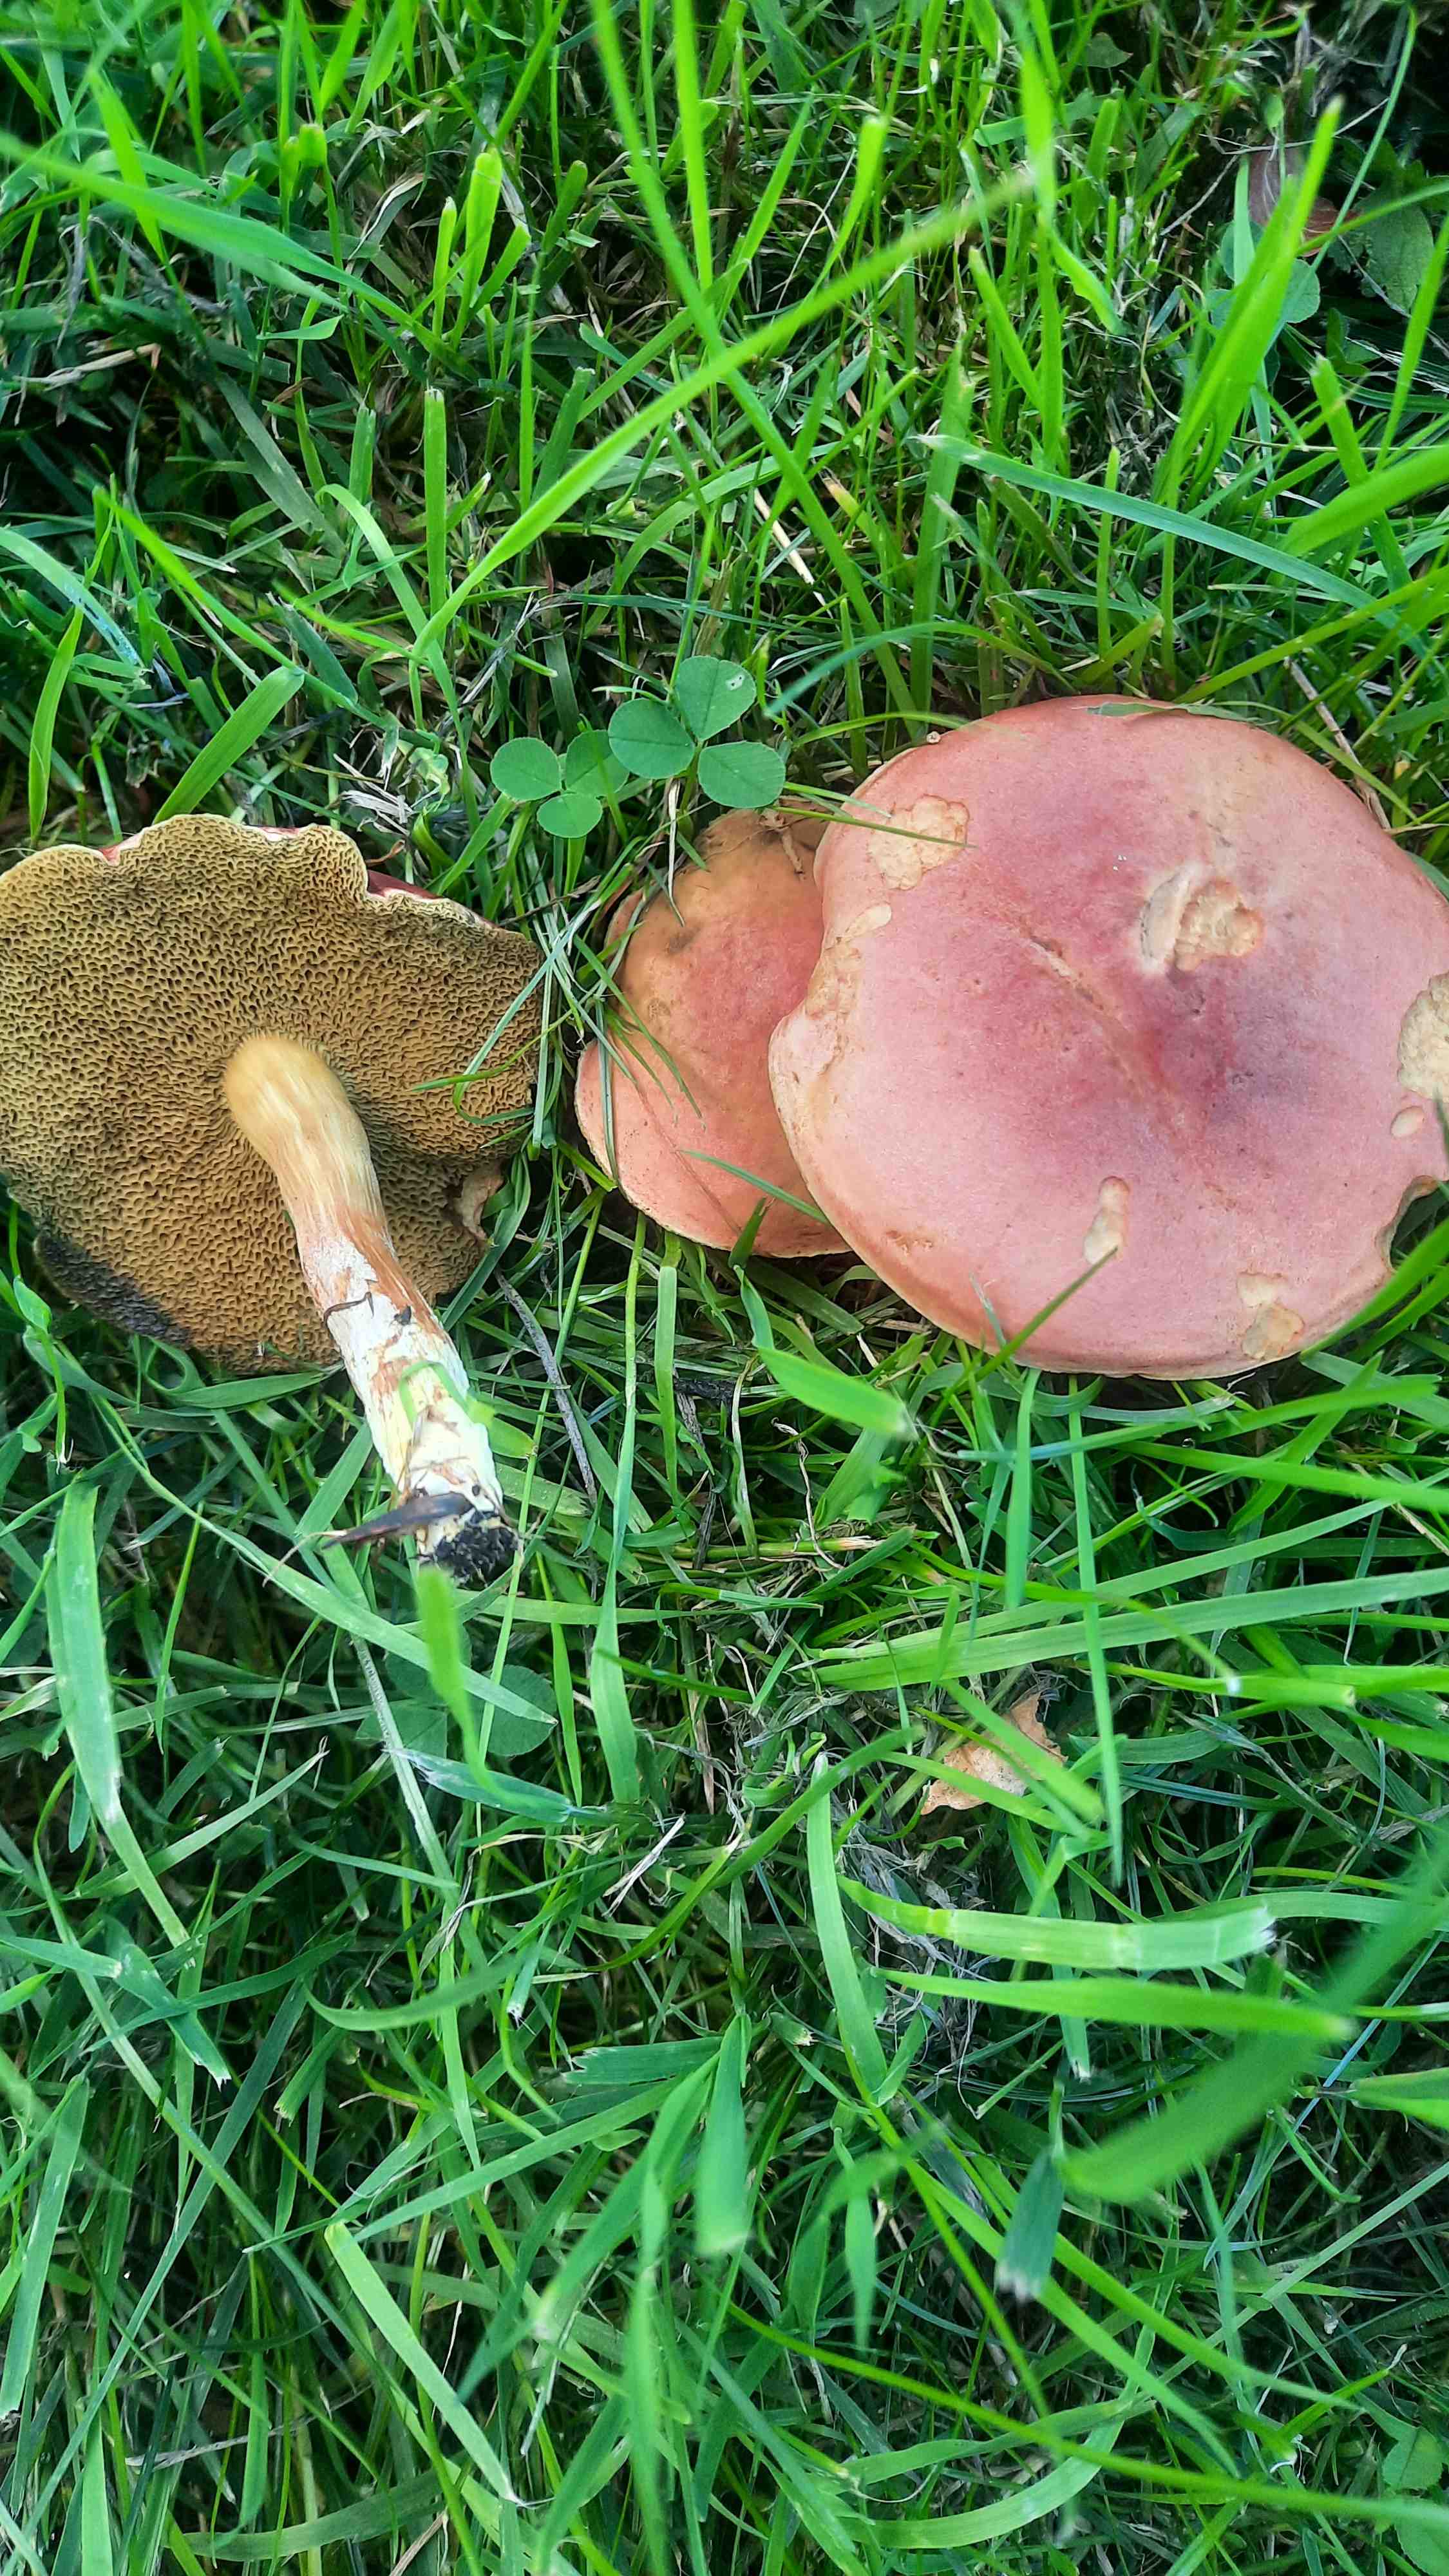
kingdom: Fungi
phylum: Basidiomycota
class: Agaricomycetes
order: Boletales
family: Boletaceae
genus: Hortiboletus
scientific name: Hortiboletus rubellus
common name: blodrød rørhat
